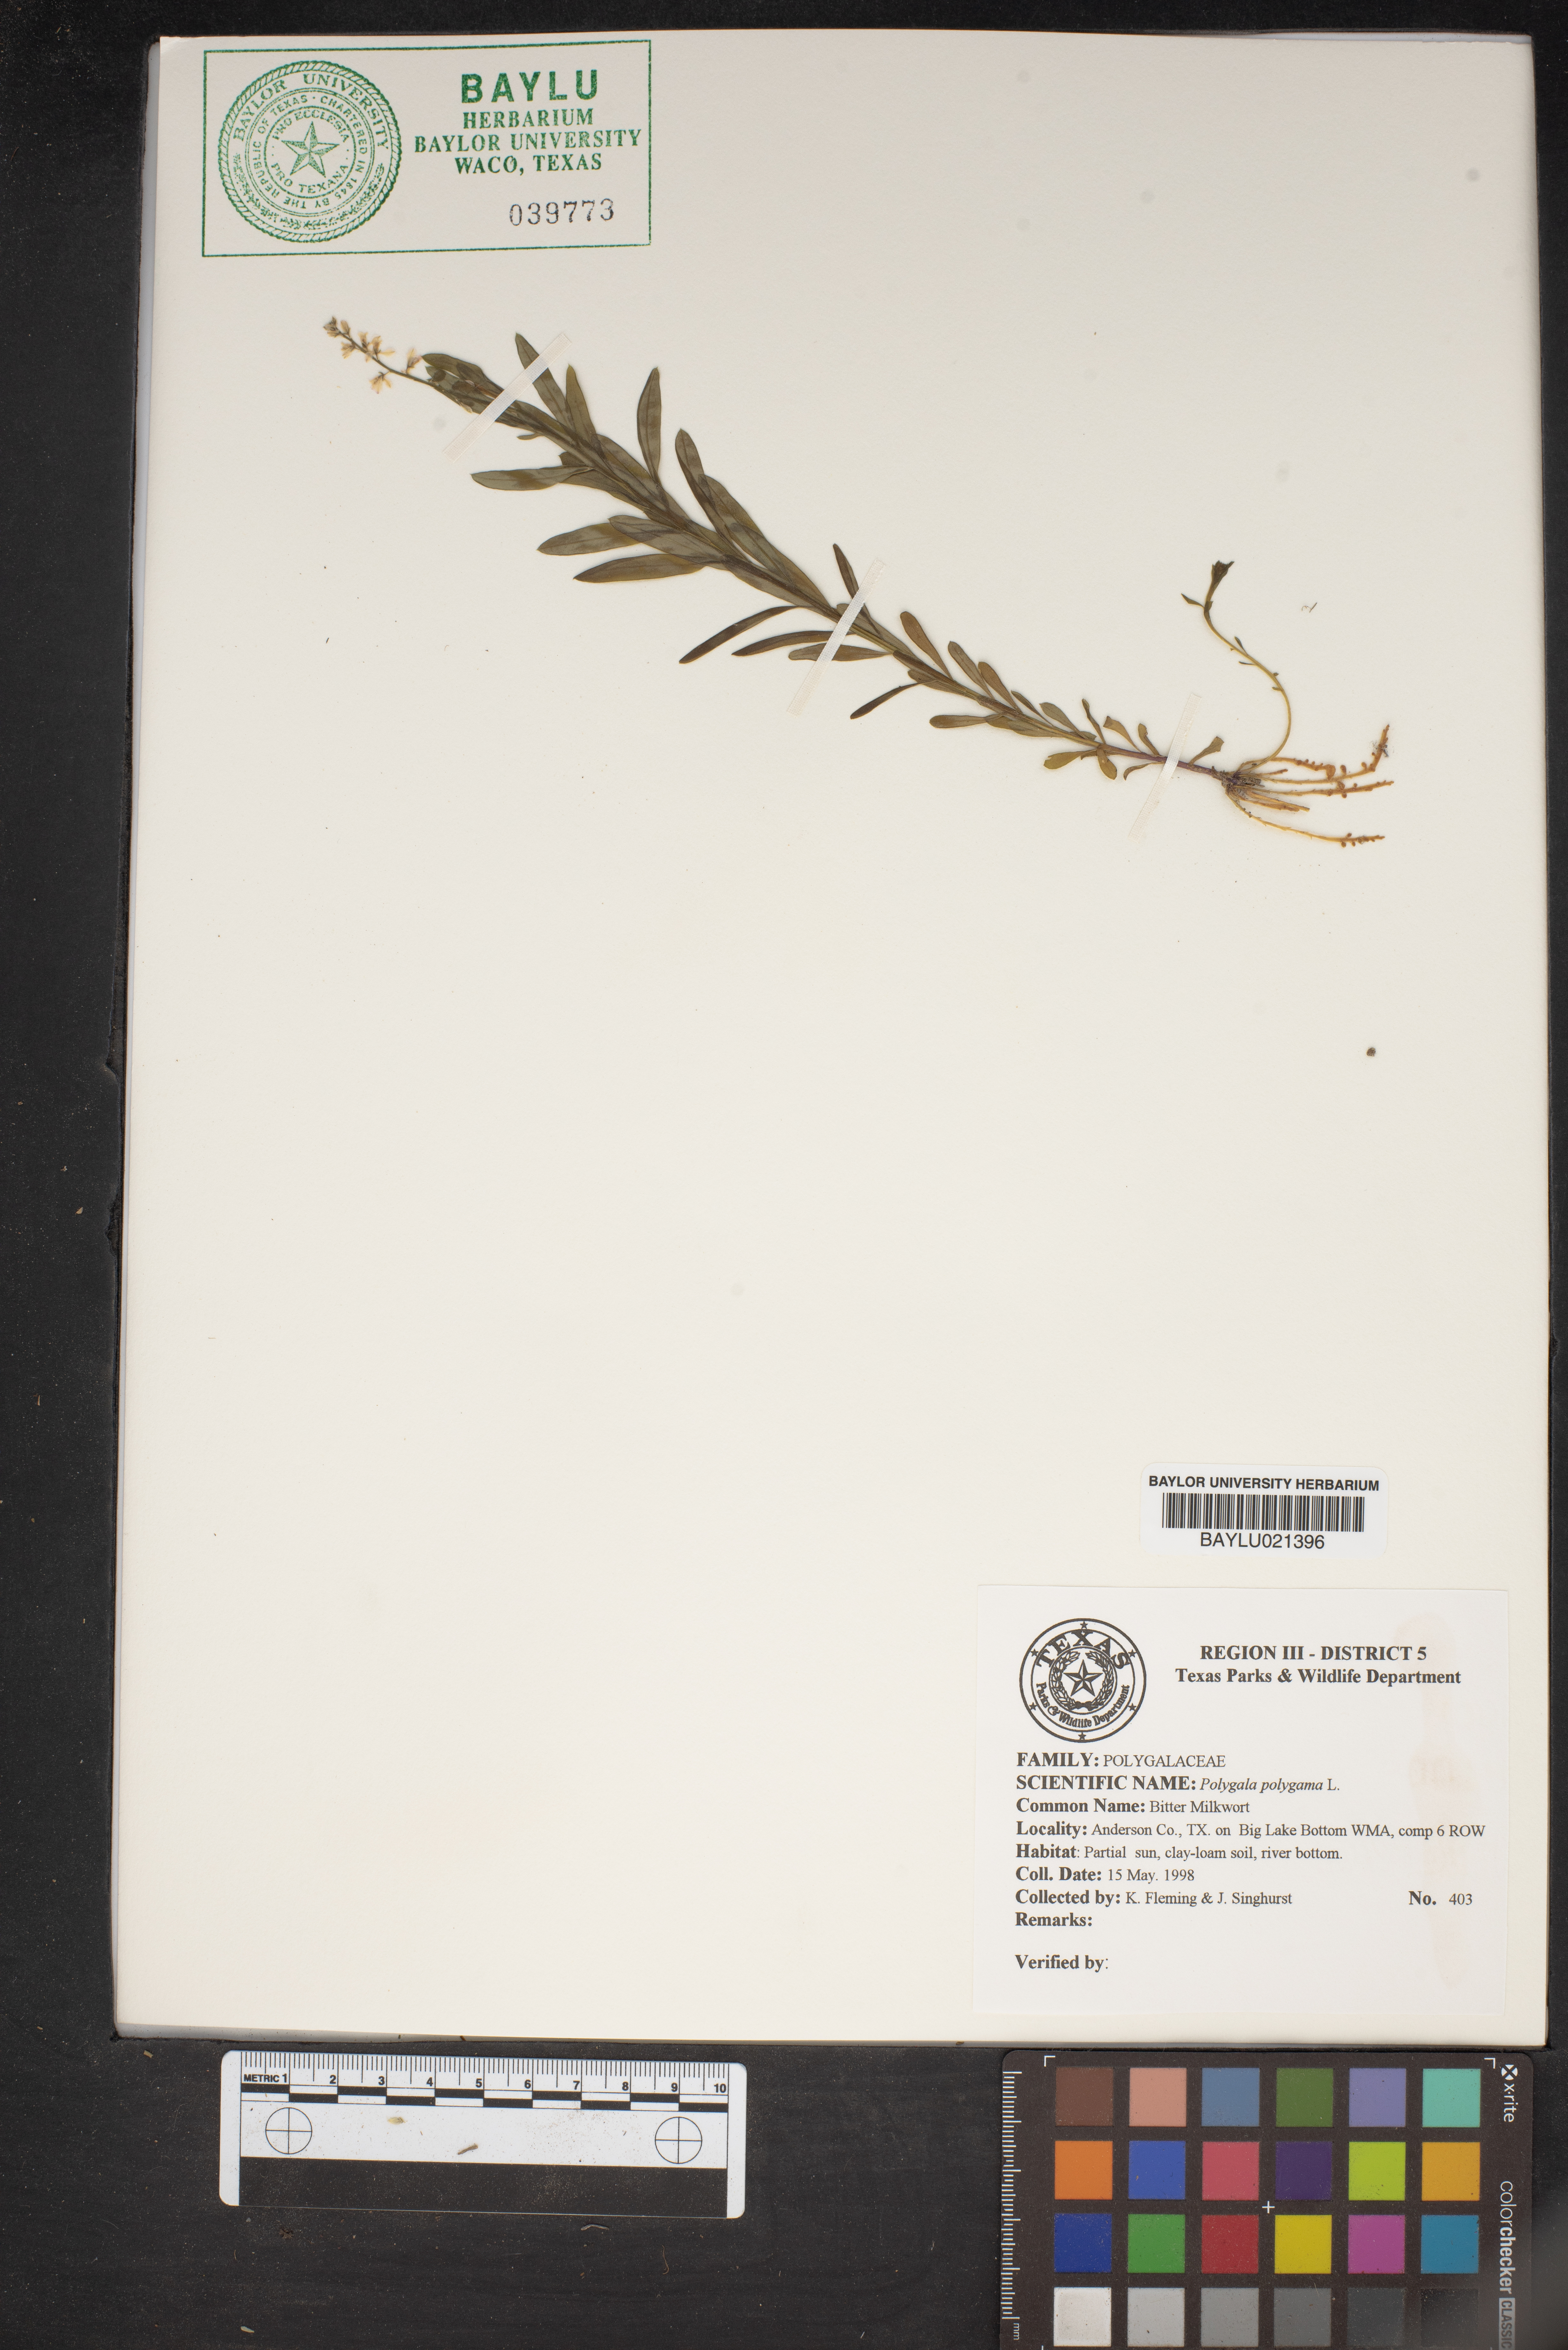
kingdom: Plantae
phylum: Tracheophyta
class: Magnoliopsida
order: Fabales
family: Polygalaceae
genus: Polygala
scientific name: Polygala polygama
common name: Bitter milkwort
